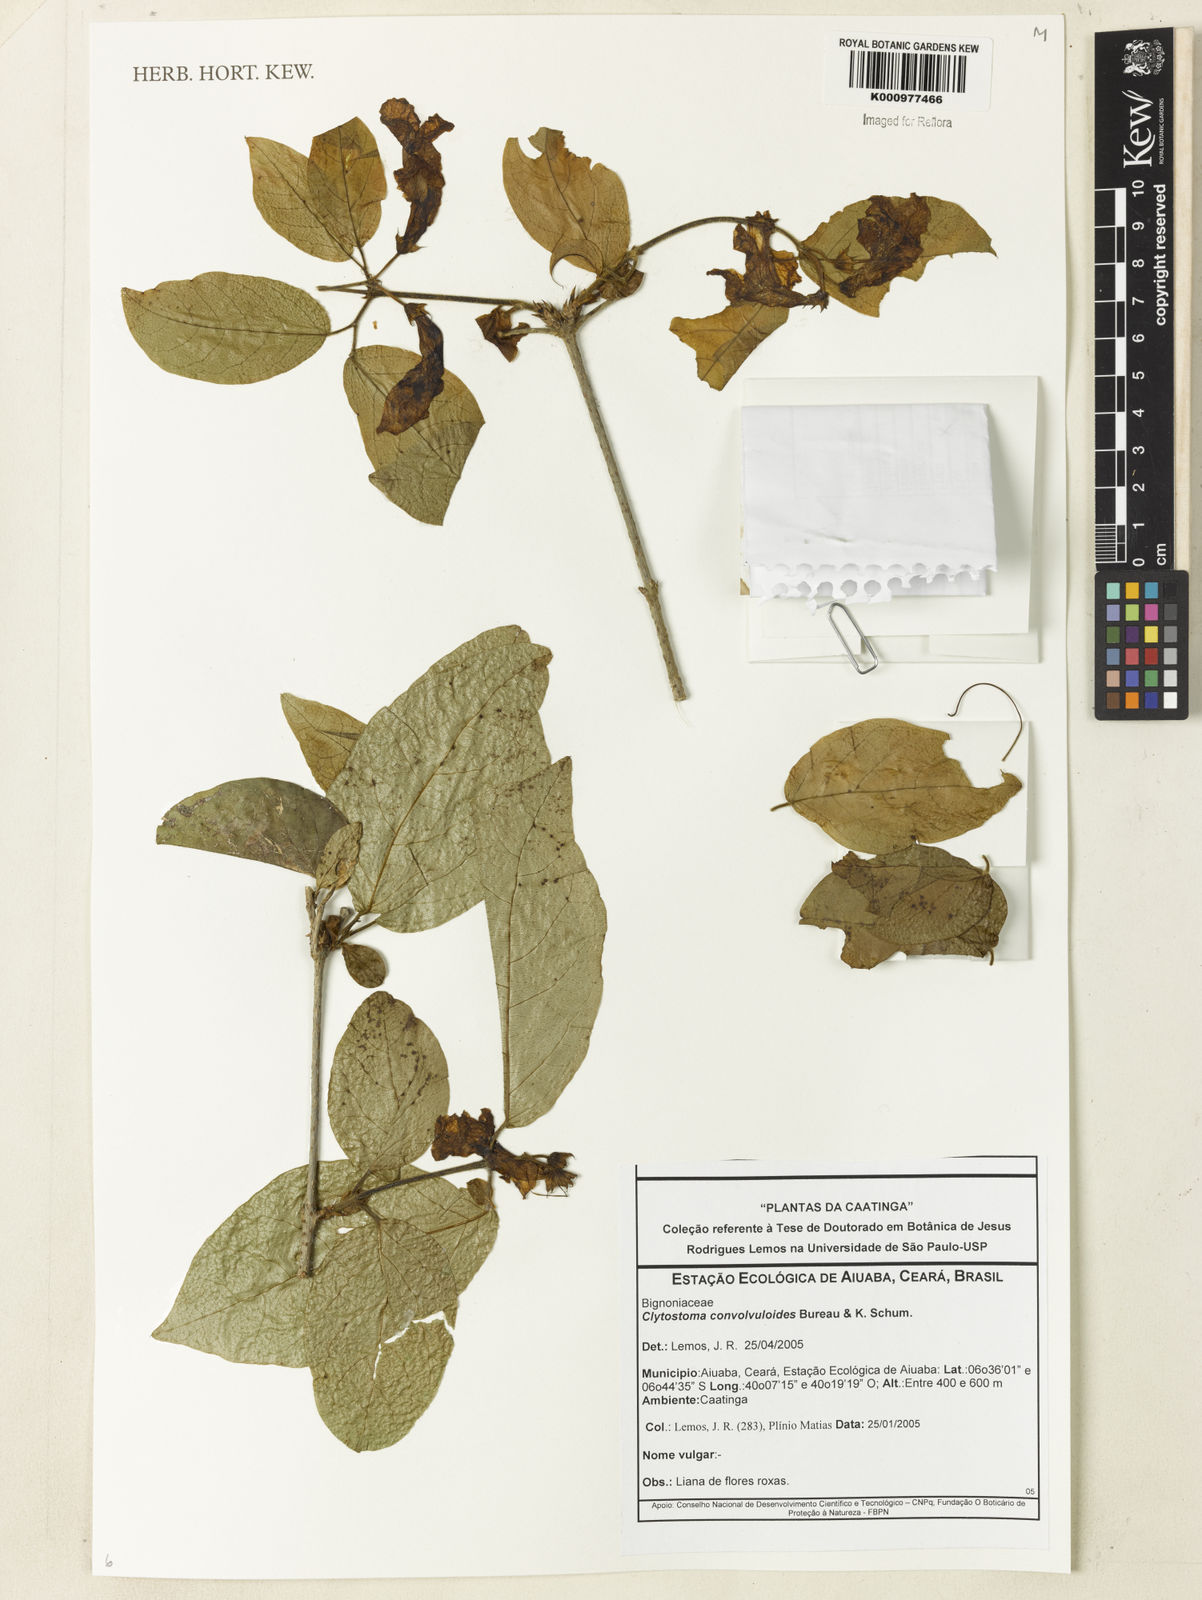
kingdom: Plantae
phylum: Tracheophyta
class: Magnoliopsida
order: Lamiales
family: Bignoniaceae
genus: Bignonia
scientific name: Bignonia convolvuloides
